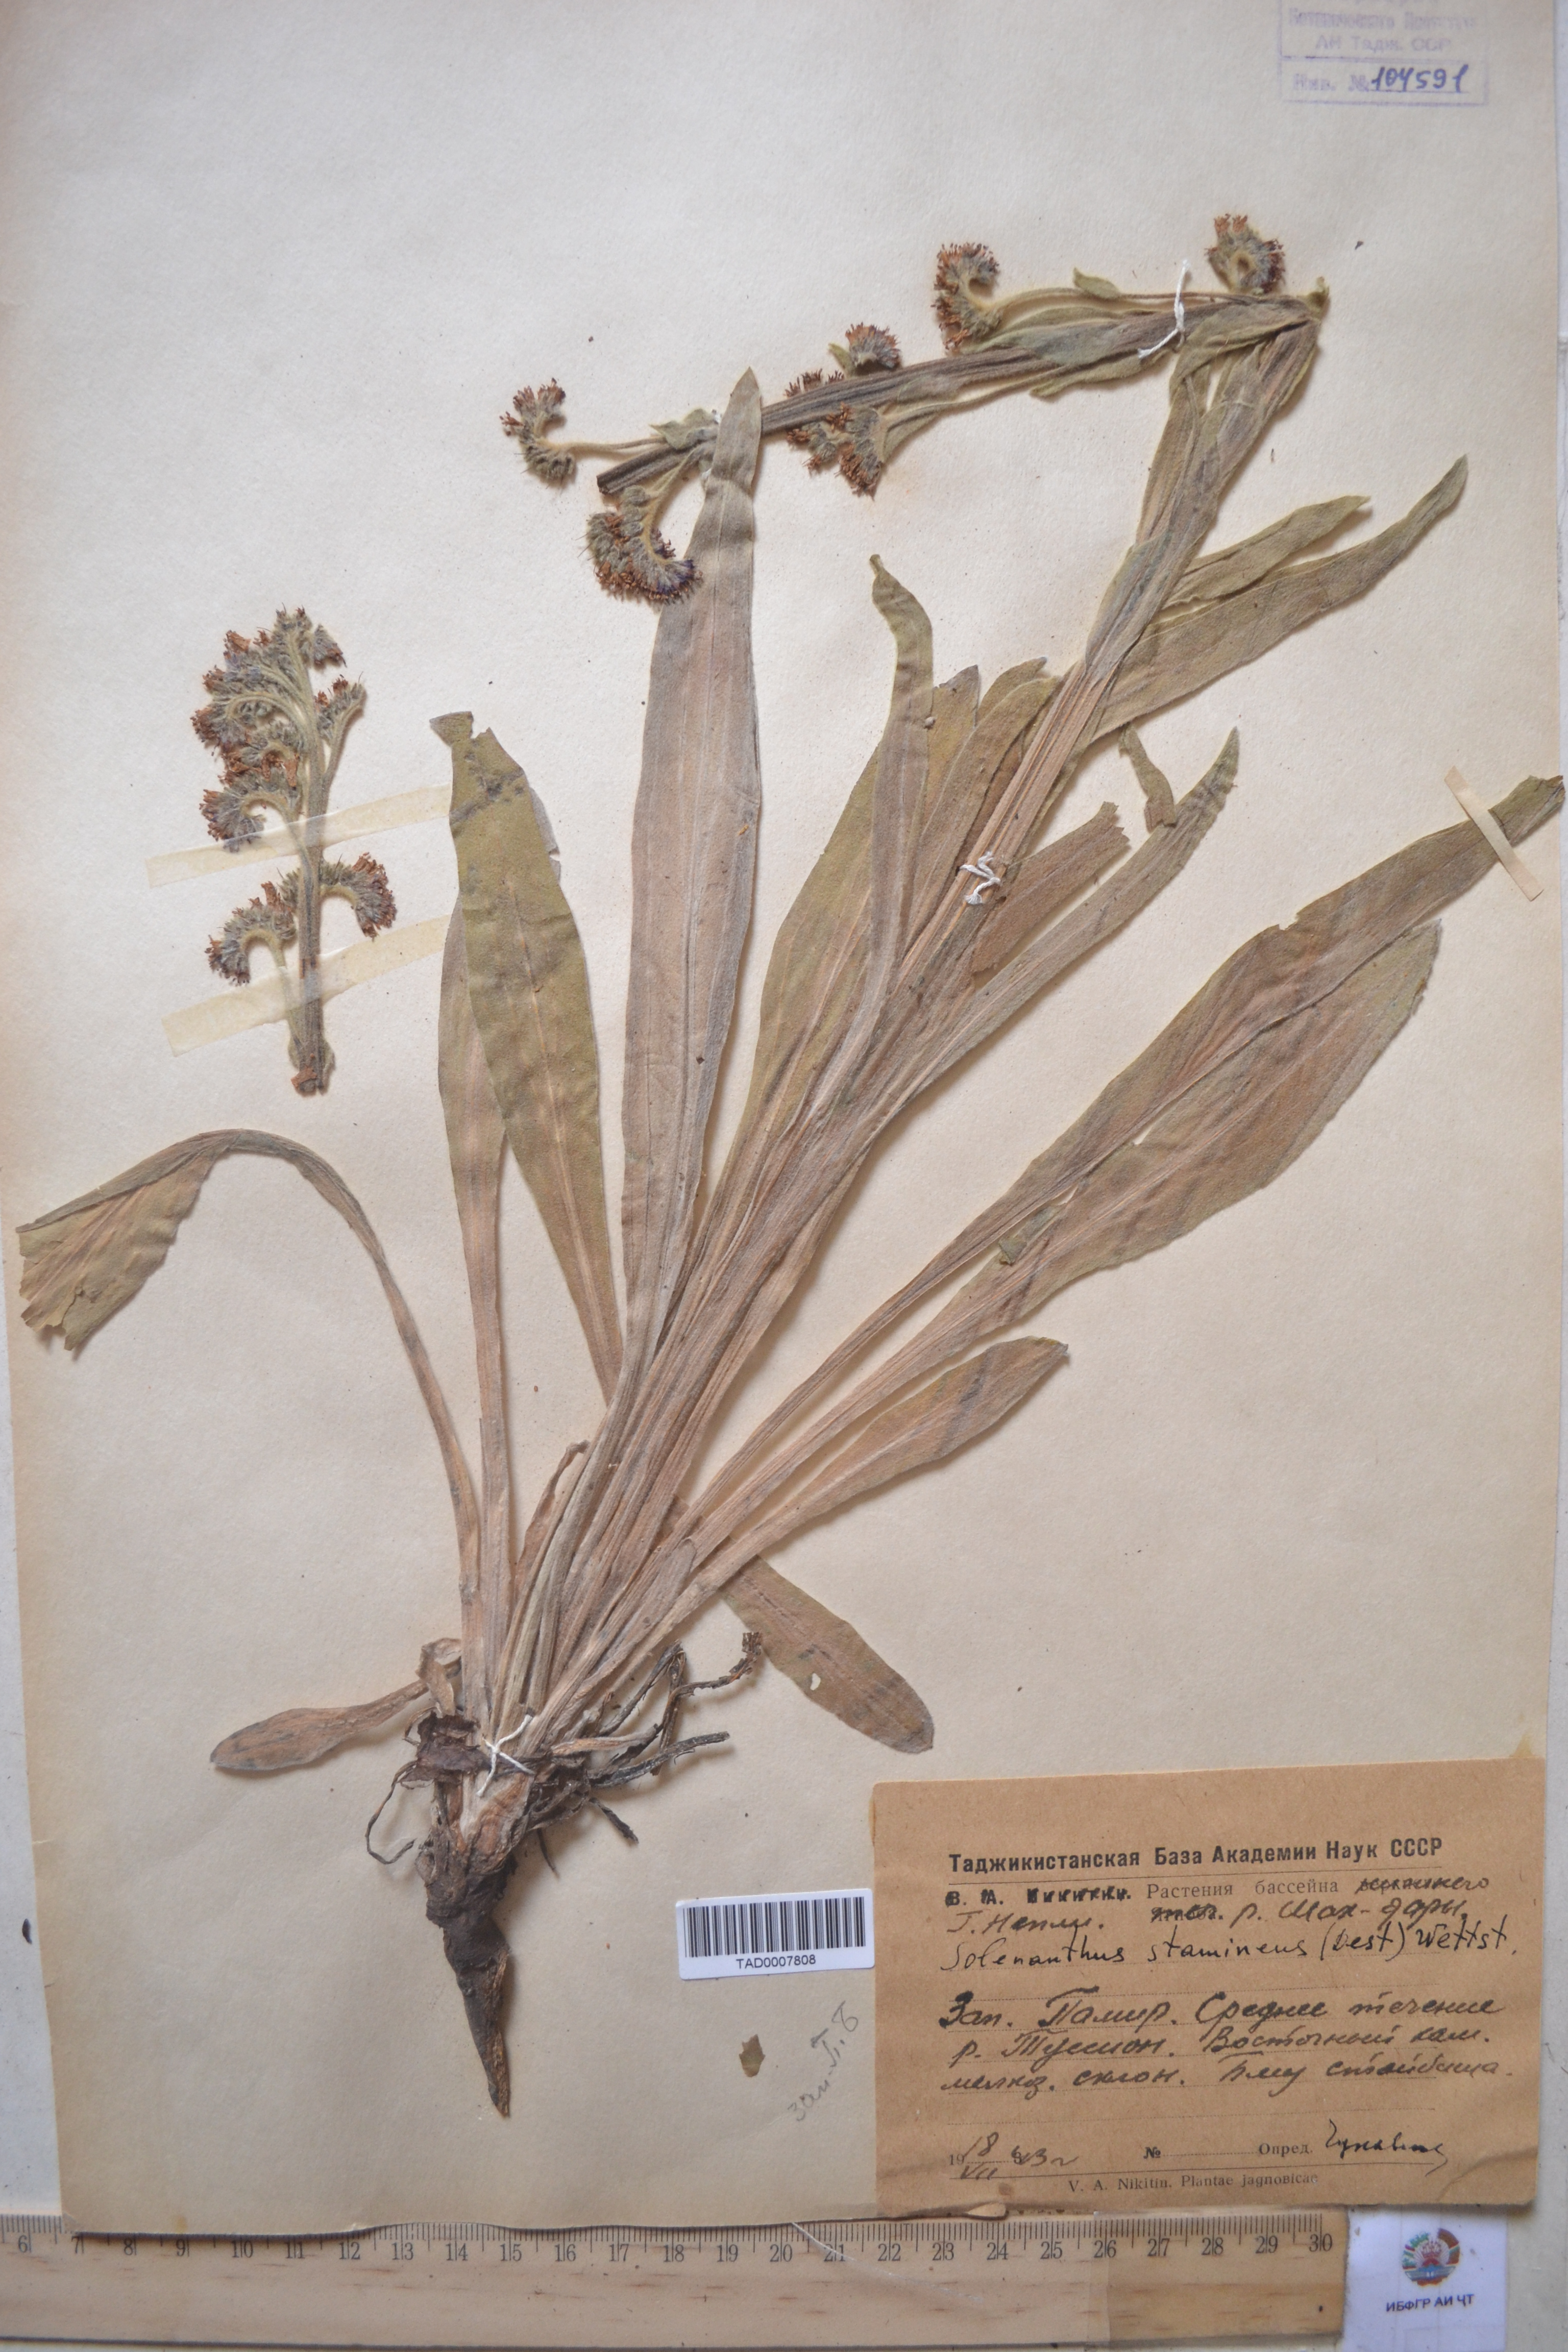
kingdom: Plantae
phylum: Tracheophyta
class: Magnoliopsida
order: Boraginales
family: Boraginaceae
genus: Solenanthus
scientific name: Solenanthus stamineus
